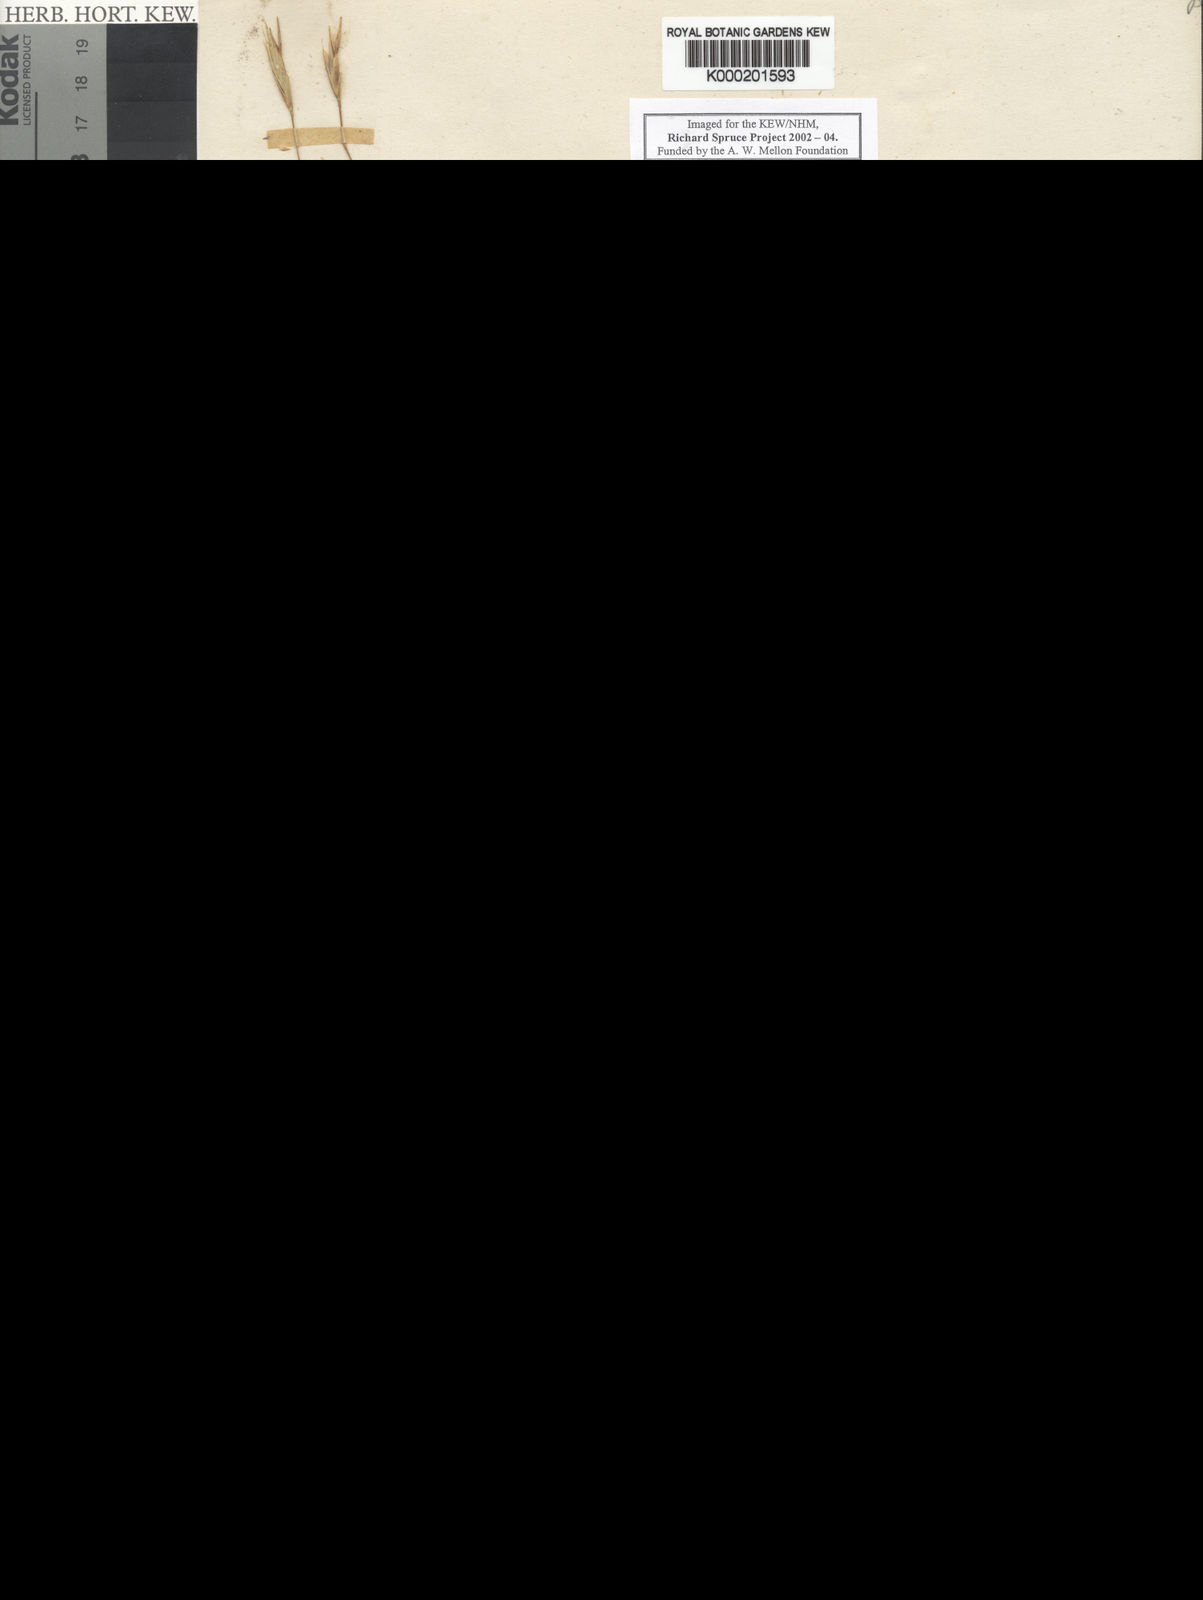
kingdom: Plantae
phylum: Tracheophyta
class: Liliopsida
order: Poales
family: Poaceae
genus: Brachypodium
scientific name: Brachypodium mexicanum
